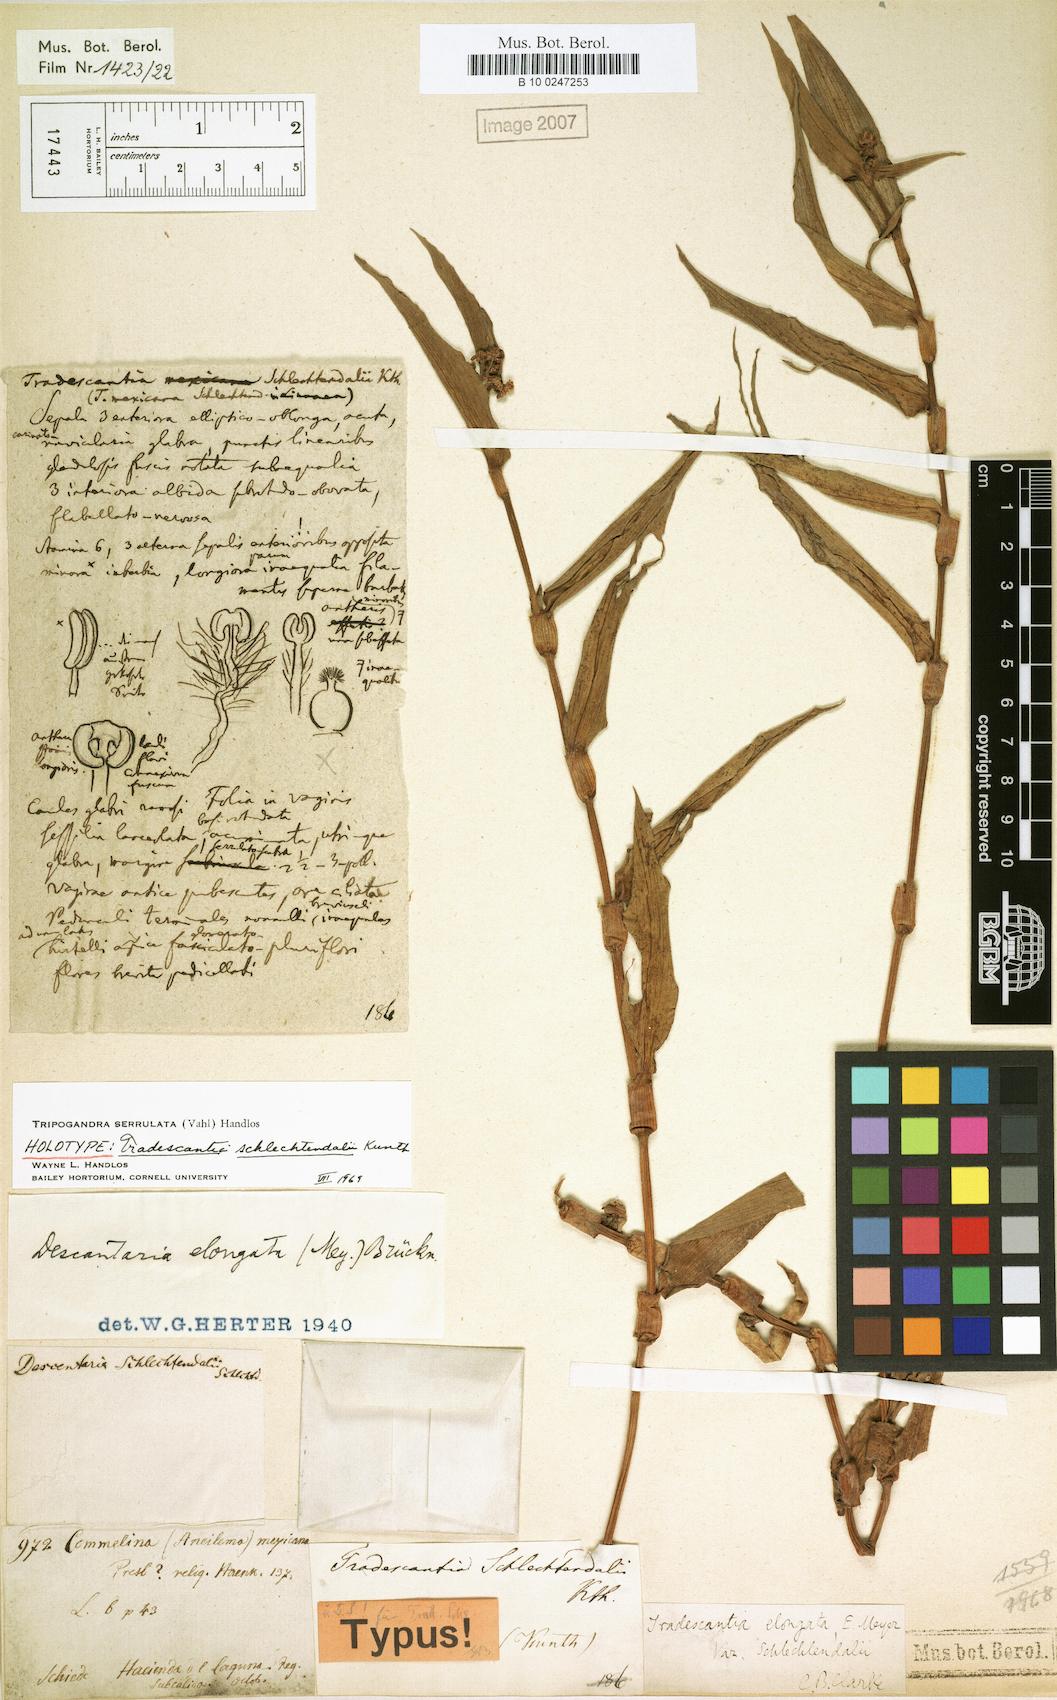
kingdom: Plantae
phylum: Tracheophyta
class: Liliopsida
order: Commelinales
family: Commelinaceae
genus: Callisia
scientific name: Callisia serrulata
